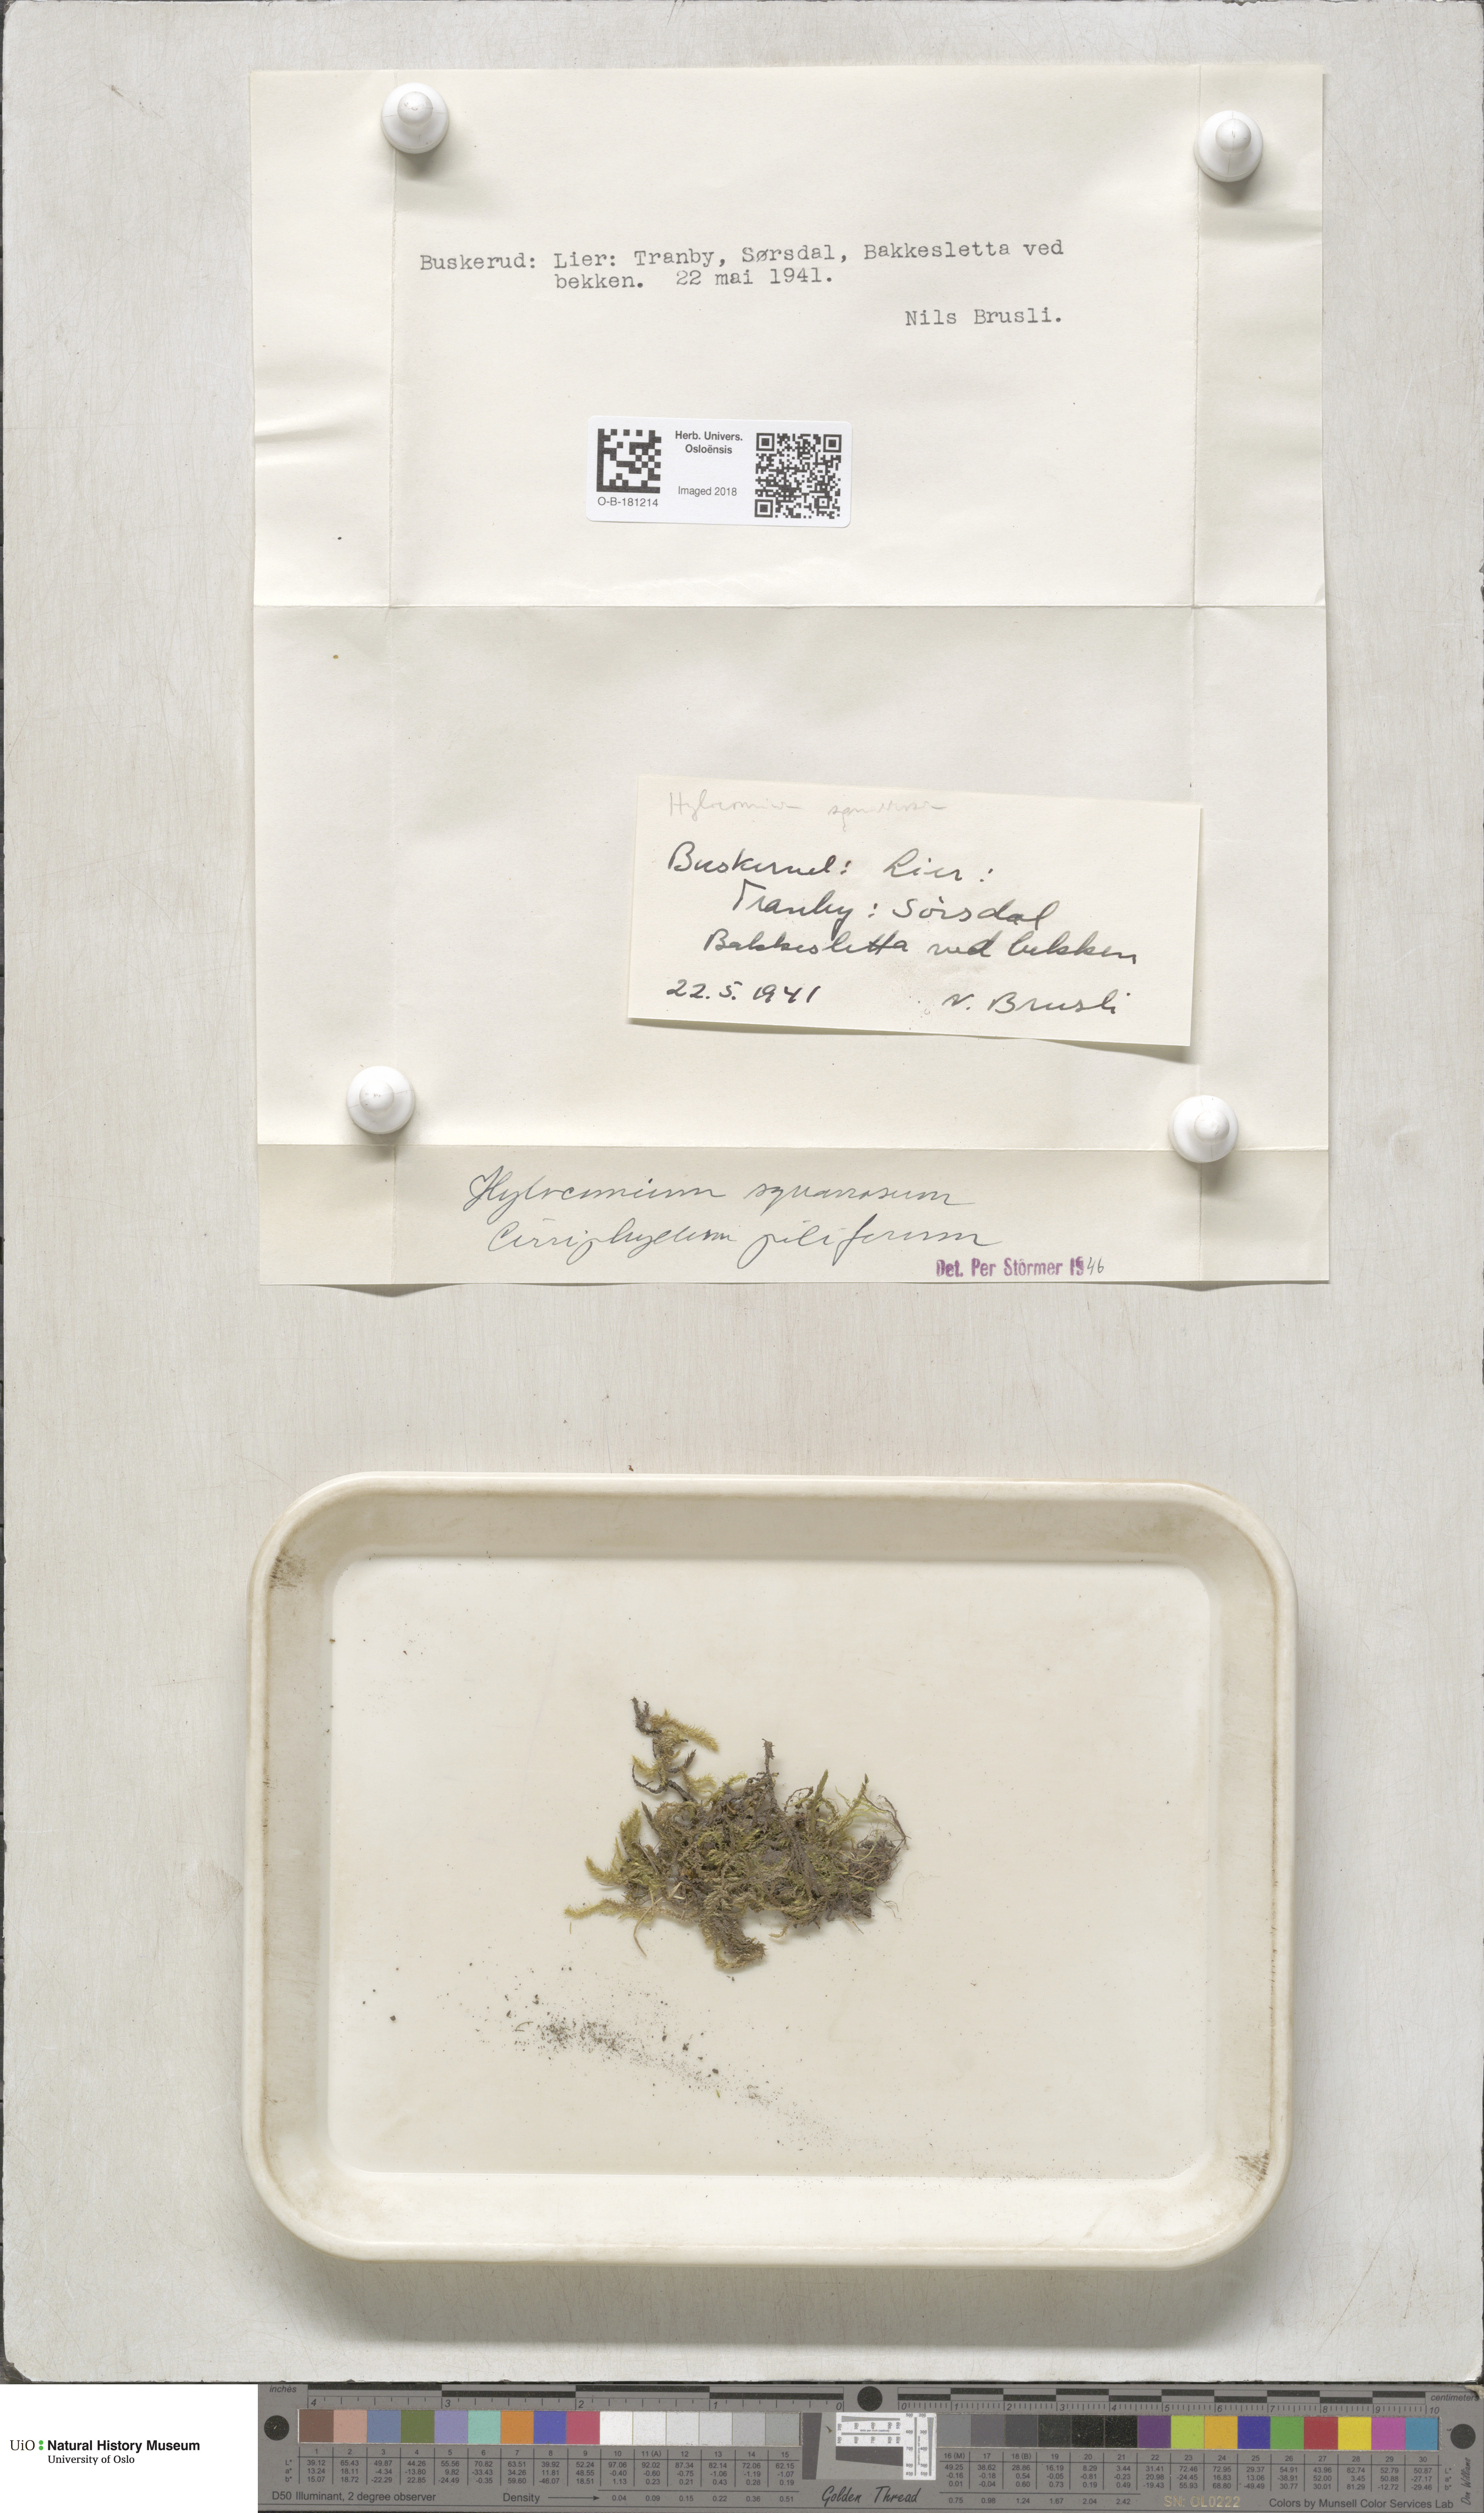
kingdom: Plantae
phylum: Bryophyta
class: Bryopsida
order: Hypnales
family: Hylocomiaceae
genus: Rhytidiadelphus
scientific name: Rhytidiadelphus squarrosus
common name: Springy turf-moss
